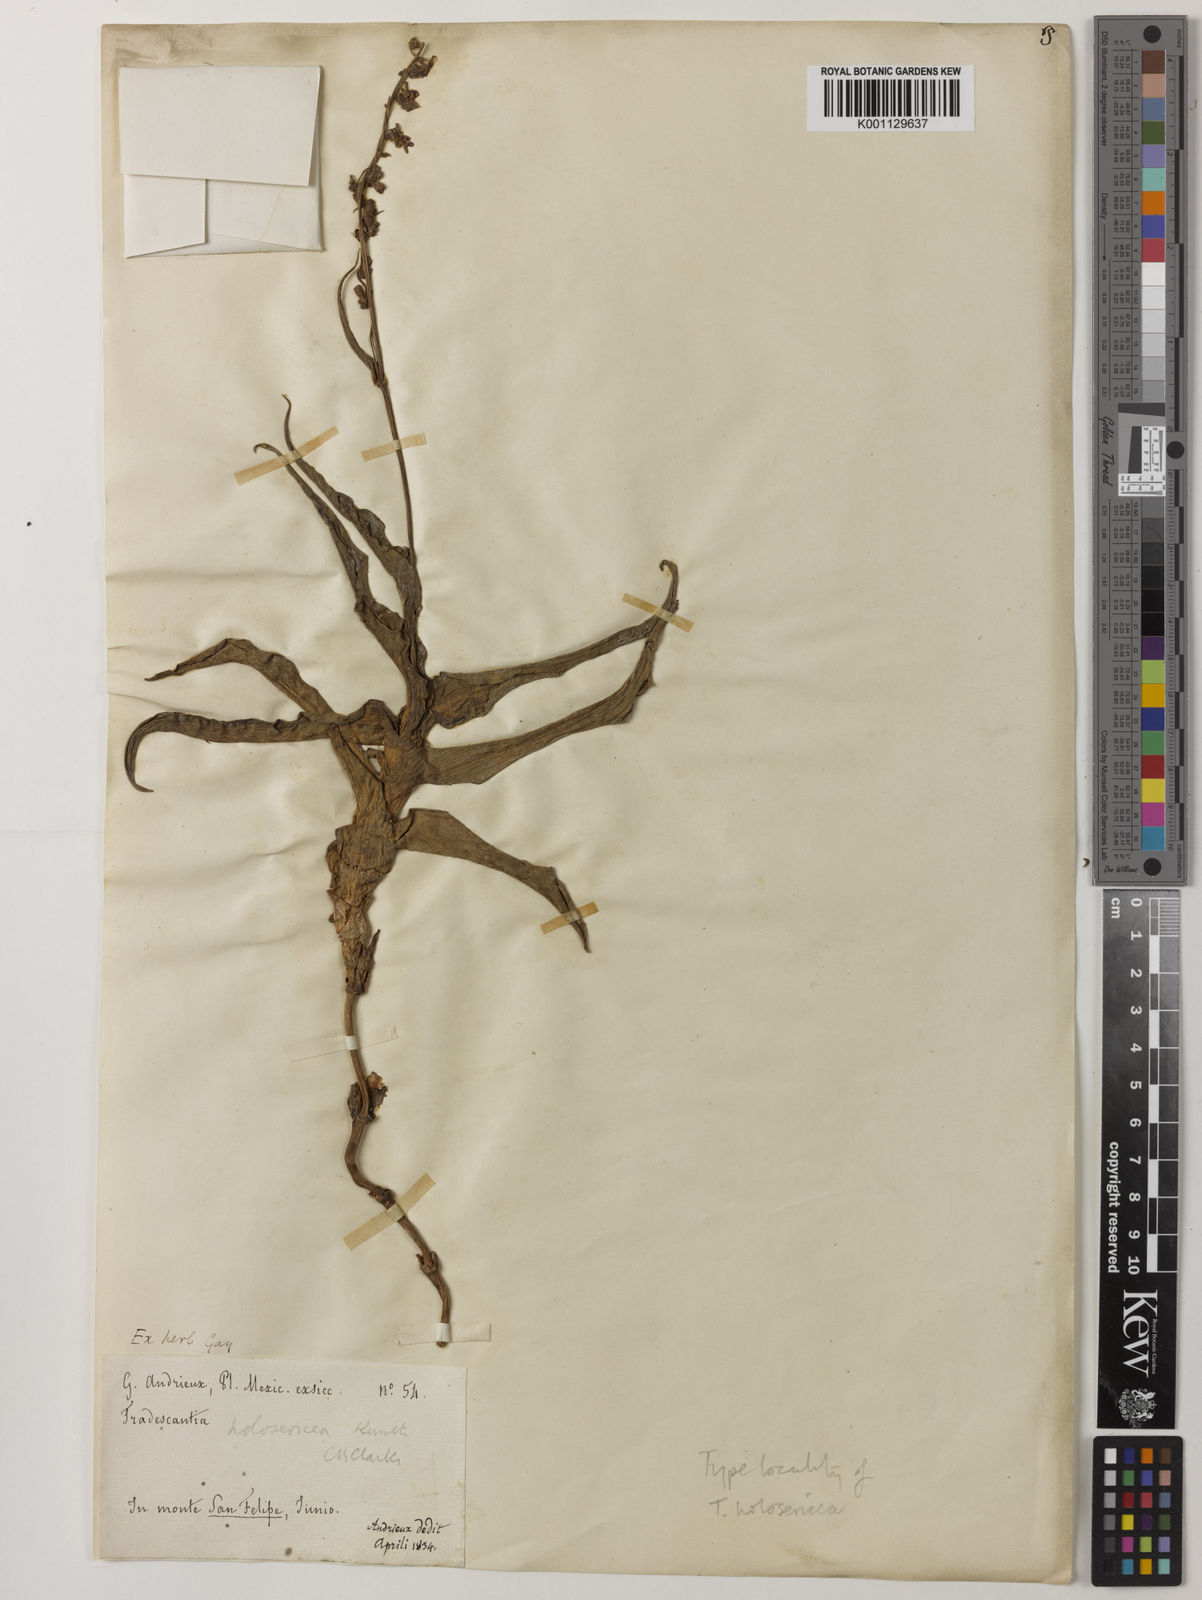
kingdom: Plantae
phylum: Tracheophyta
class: Liliopsida
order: Commelinales
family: Commelinaceae
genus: Thyrsanthemum
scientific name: Thyrsanthemum floribundum
